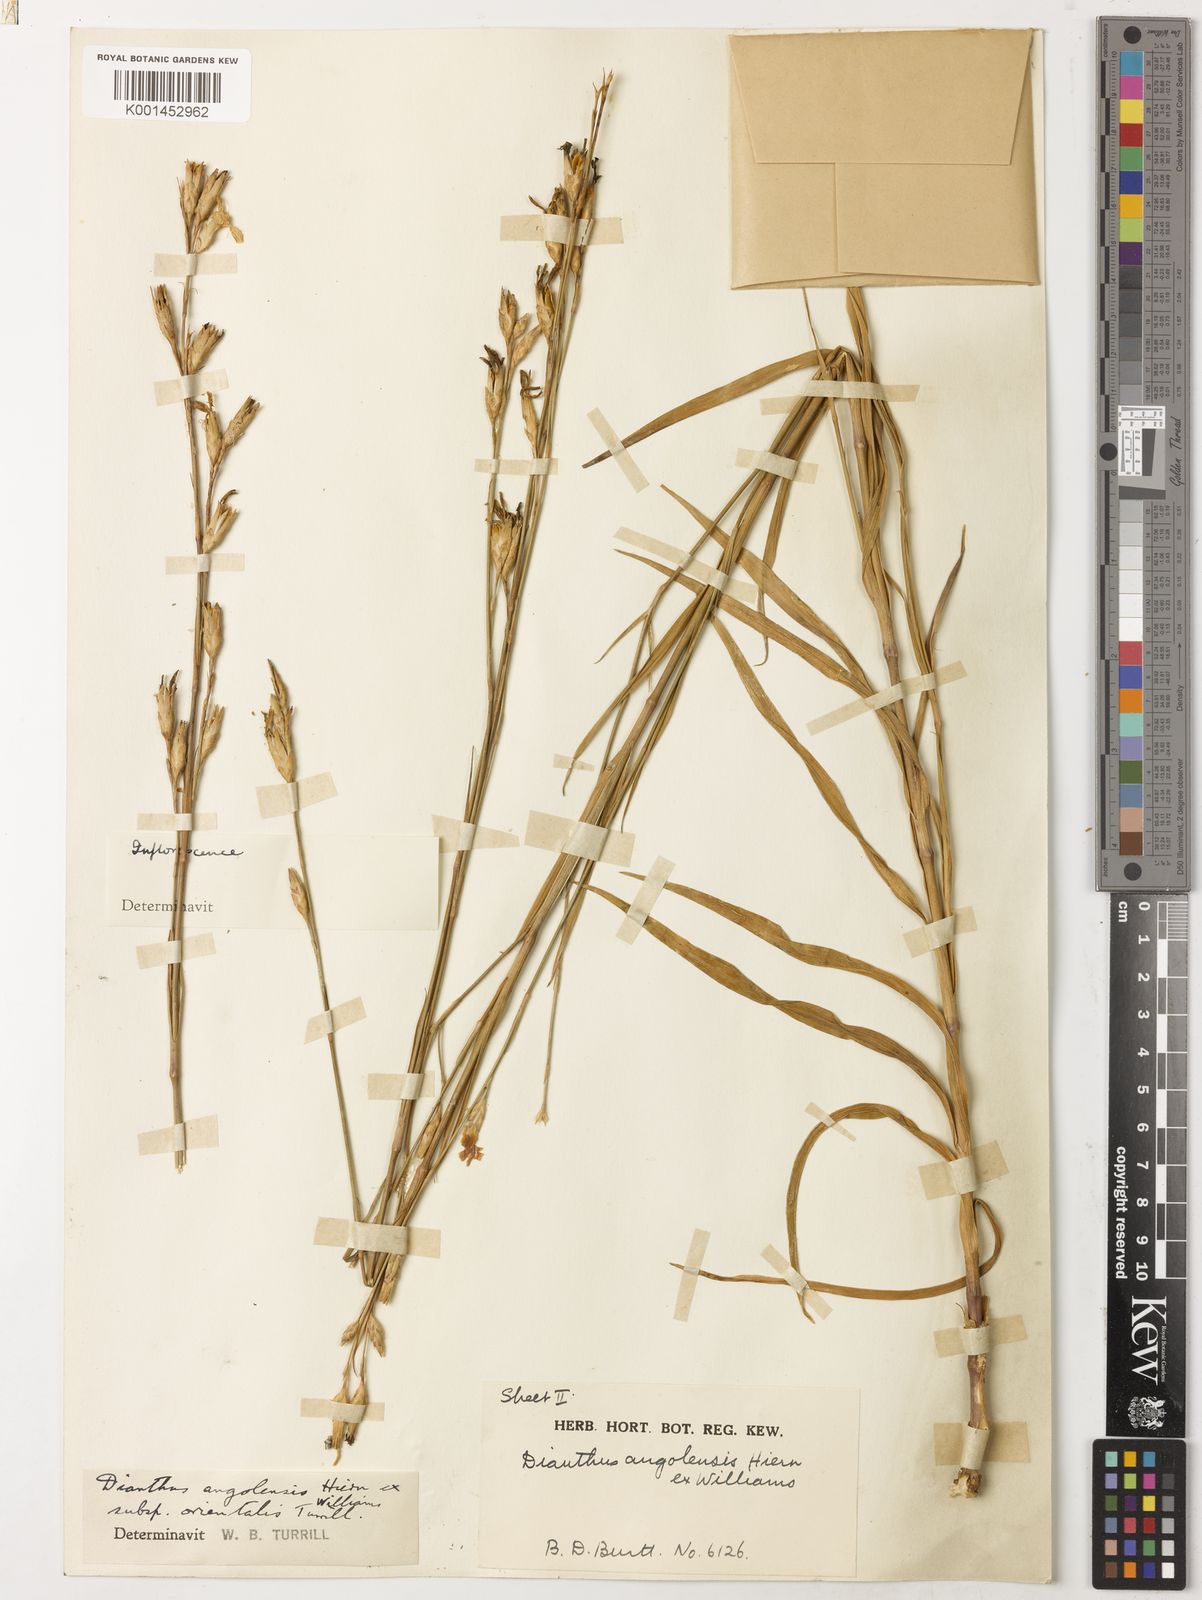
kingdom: Plantae
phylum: Tracheophyta
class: Magnoliopsida
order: Caryophyllales
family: Caryophyllaceae
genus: Dianthus
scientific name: Dianthus angolensis
